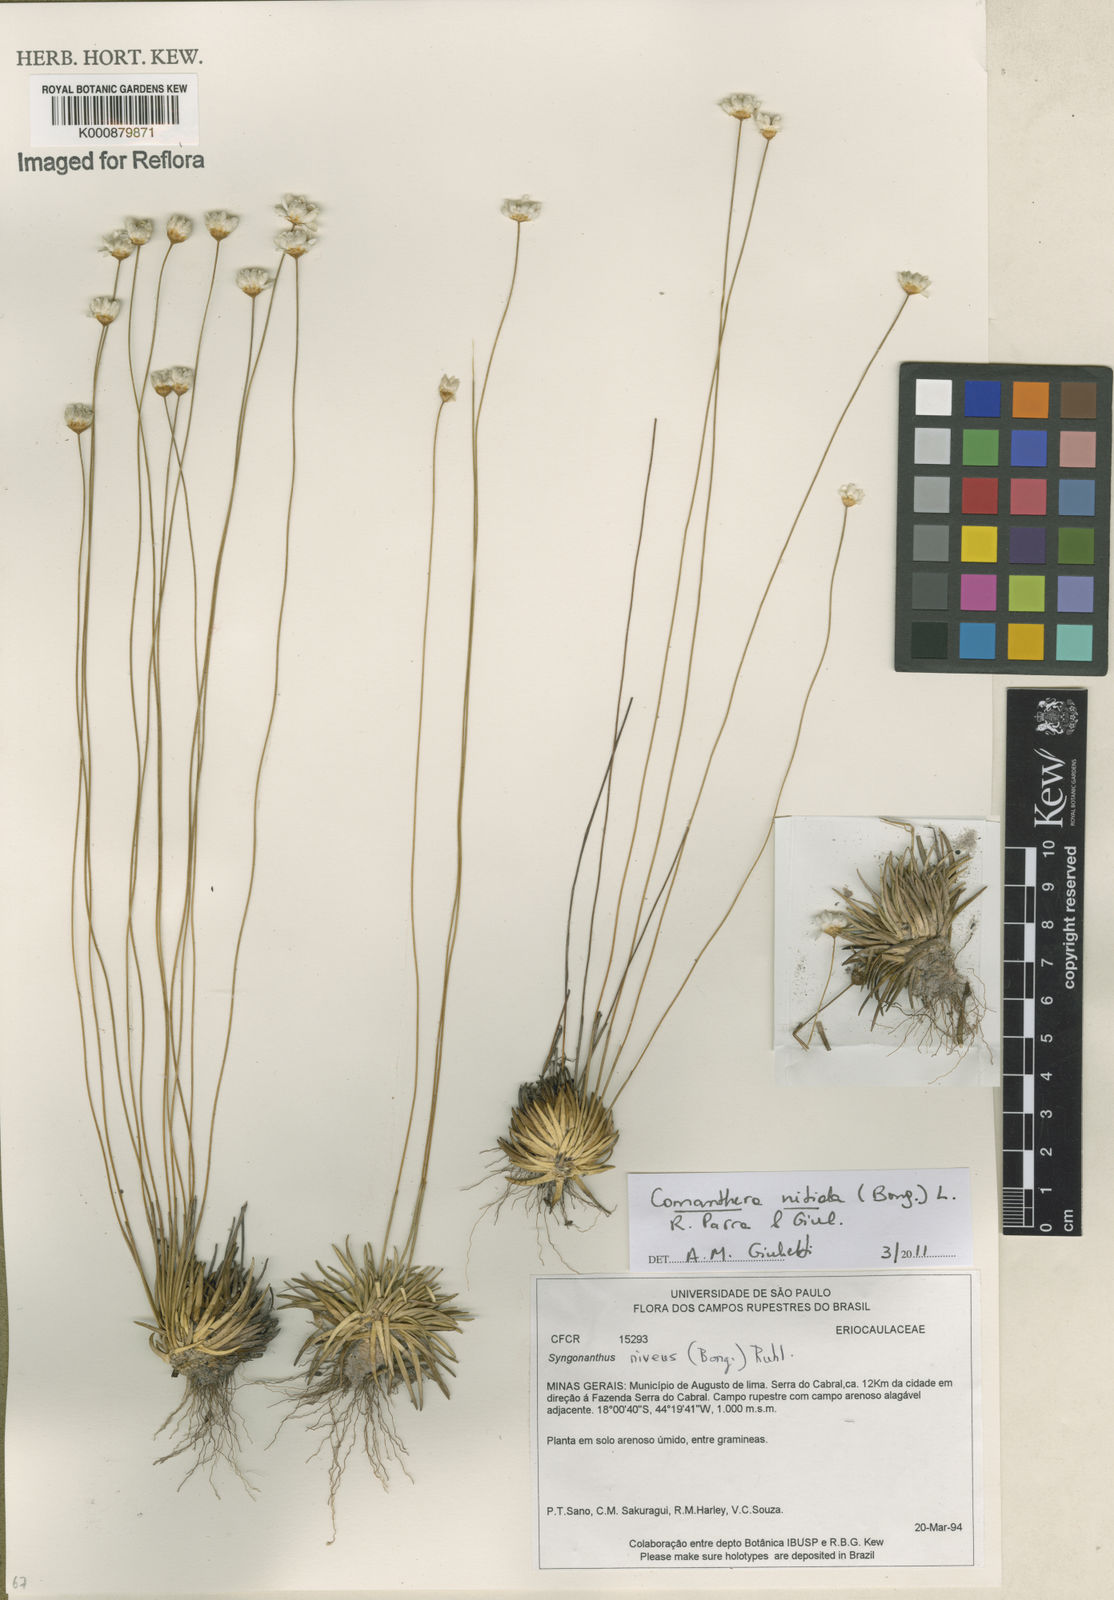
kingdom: Plantae
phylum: Tracheophyta
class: Liliopsida
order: Poales
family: Eriocaulaceae
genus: Comanthera
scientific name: Comanthera nitida
